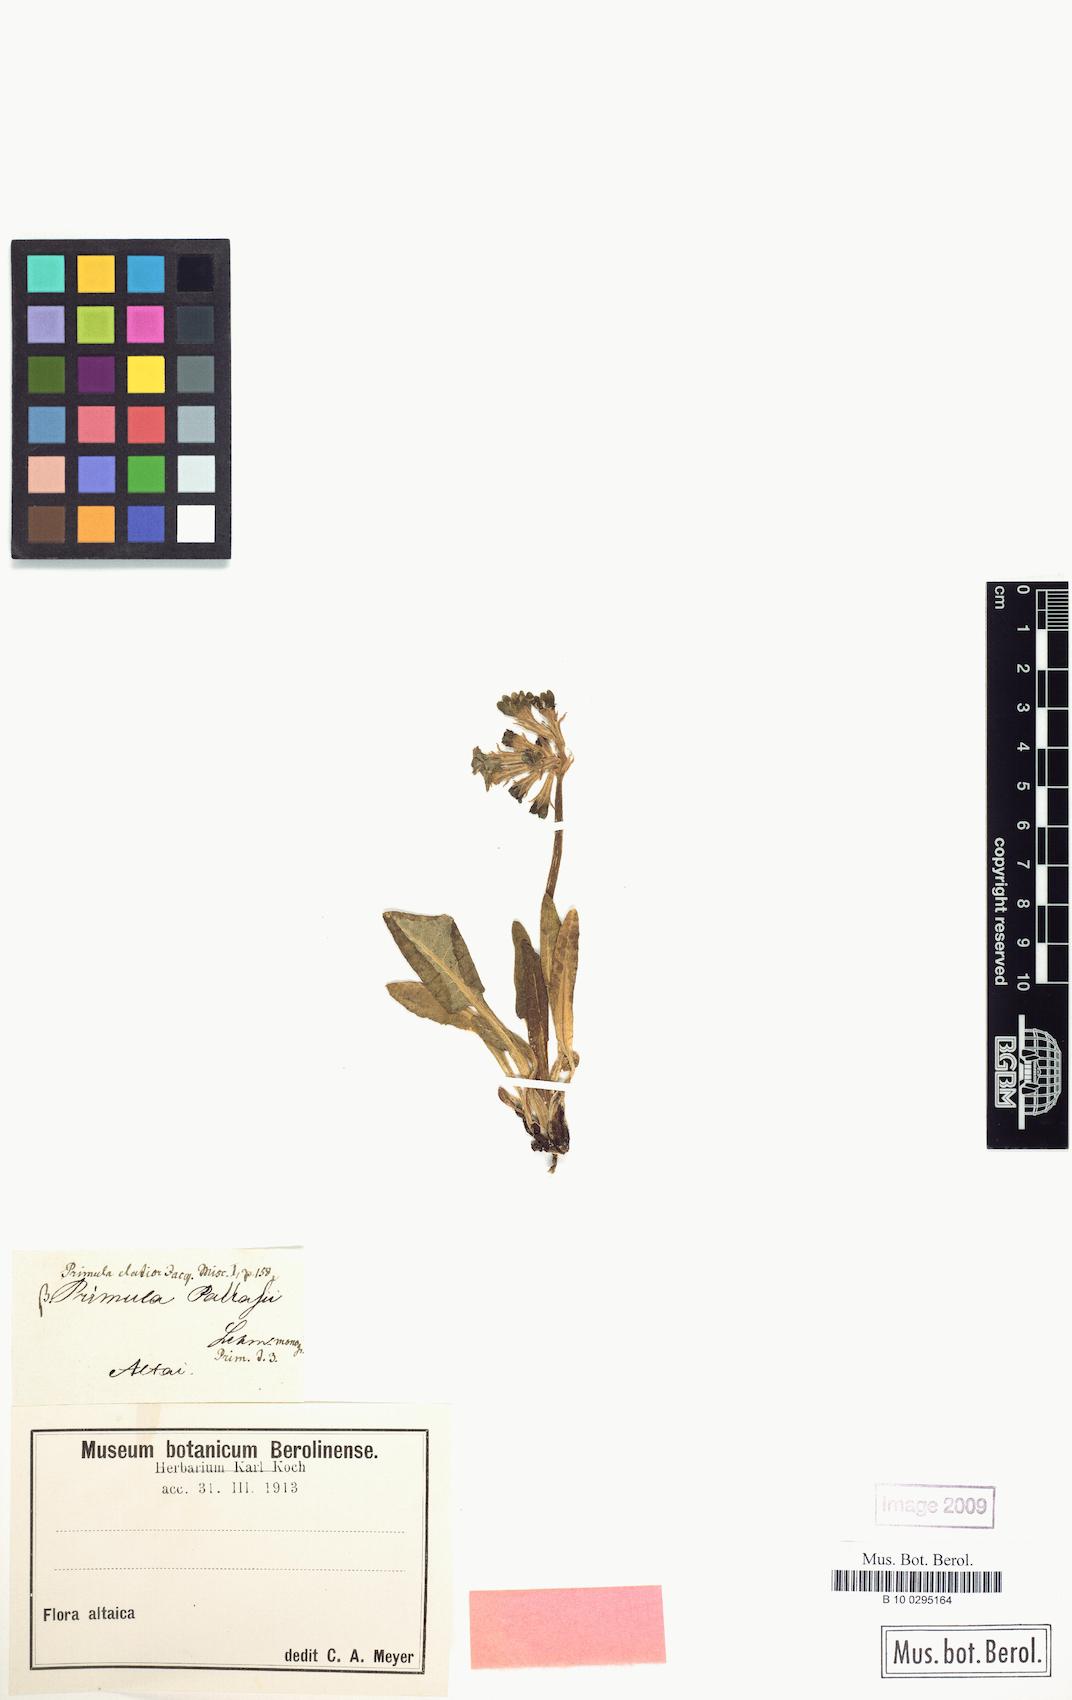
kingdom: Plantae
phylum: Tracheophyta
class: Magnoliopsida
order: Ericales
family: Primulaceae
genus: Primula
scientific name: Primula elatior
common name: Oxlip
